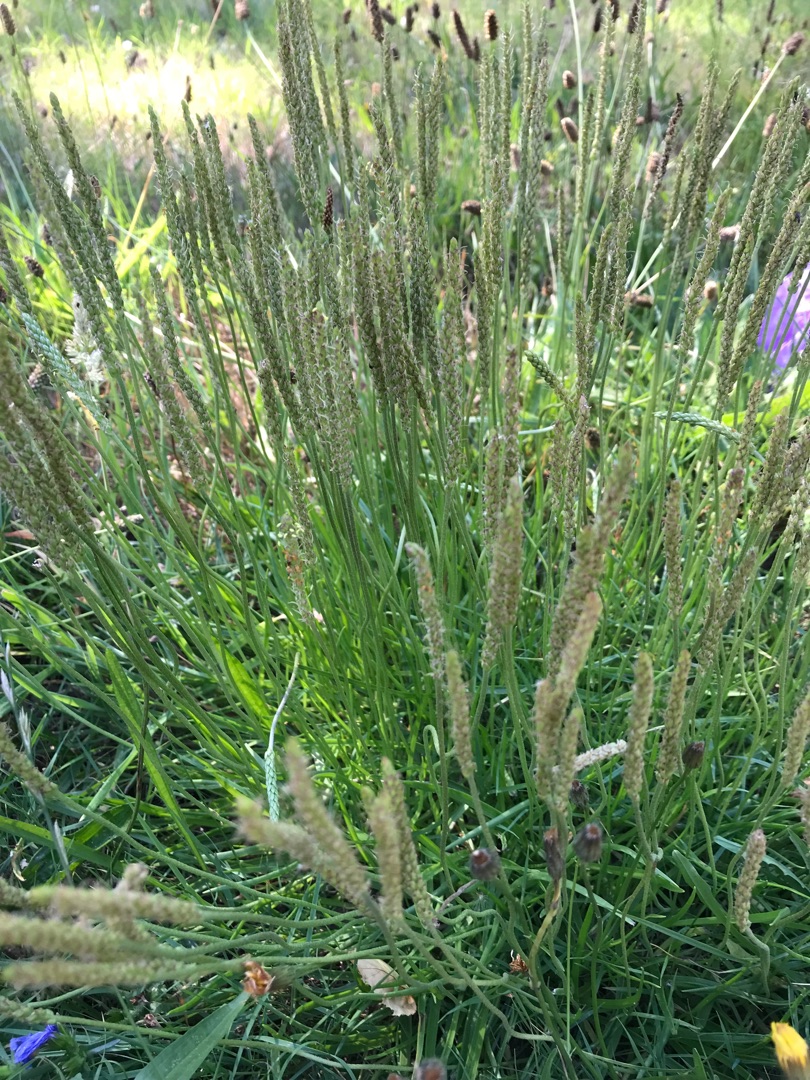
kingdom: Plantae
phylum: Tracheophyta
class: Magnoliopsida
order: Lamiales
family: Plantaginaceae
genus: Plantago
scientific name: Plantago maritima
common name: Strand-vejbred
